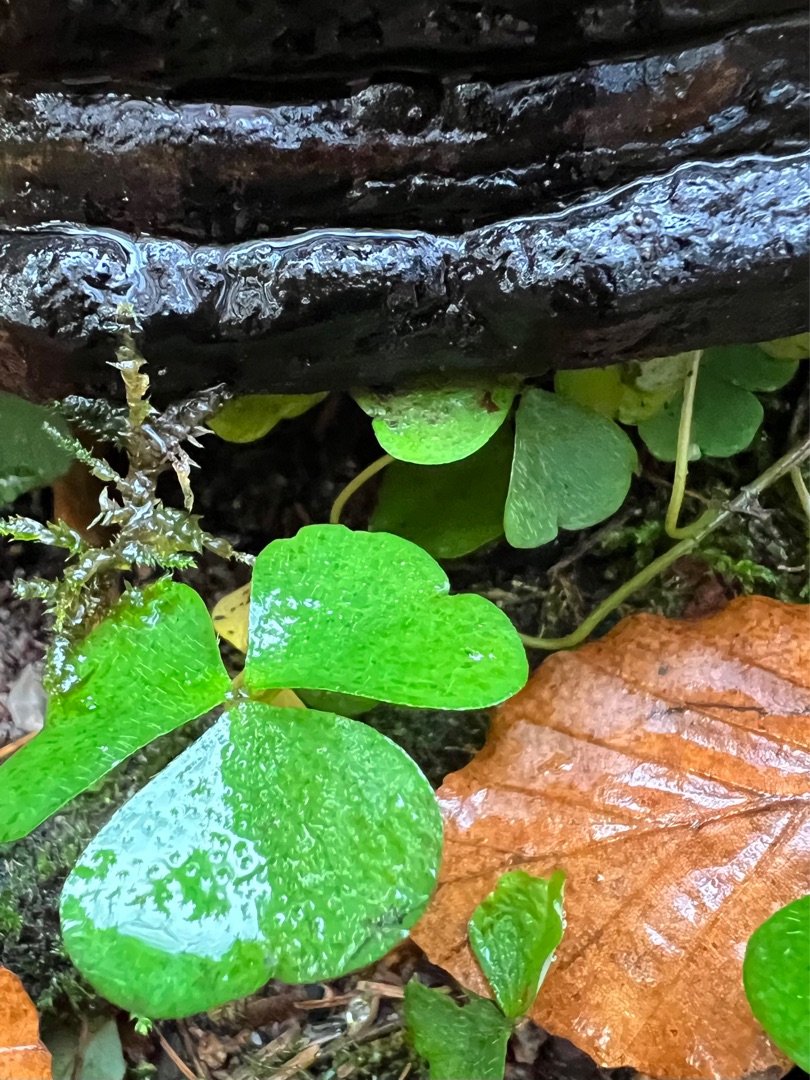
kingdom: Plantae
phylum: Tracheophyta
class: Magnoliopsida
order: Oxalidales
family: Oxalidaceae
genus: Oxalis
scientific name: Oxalis acetosella
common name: Skovsyre
